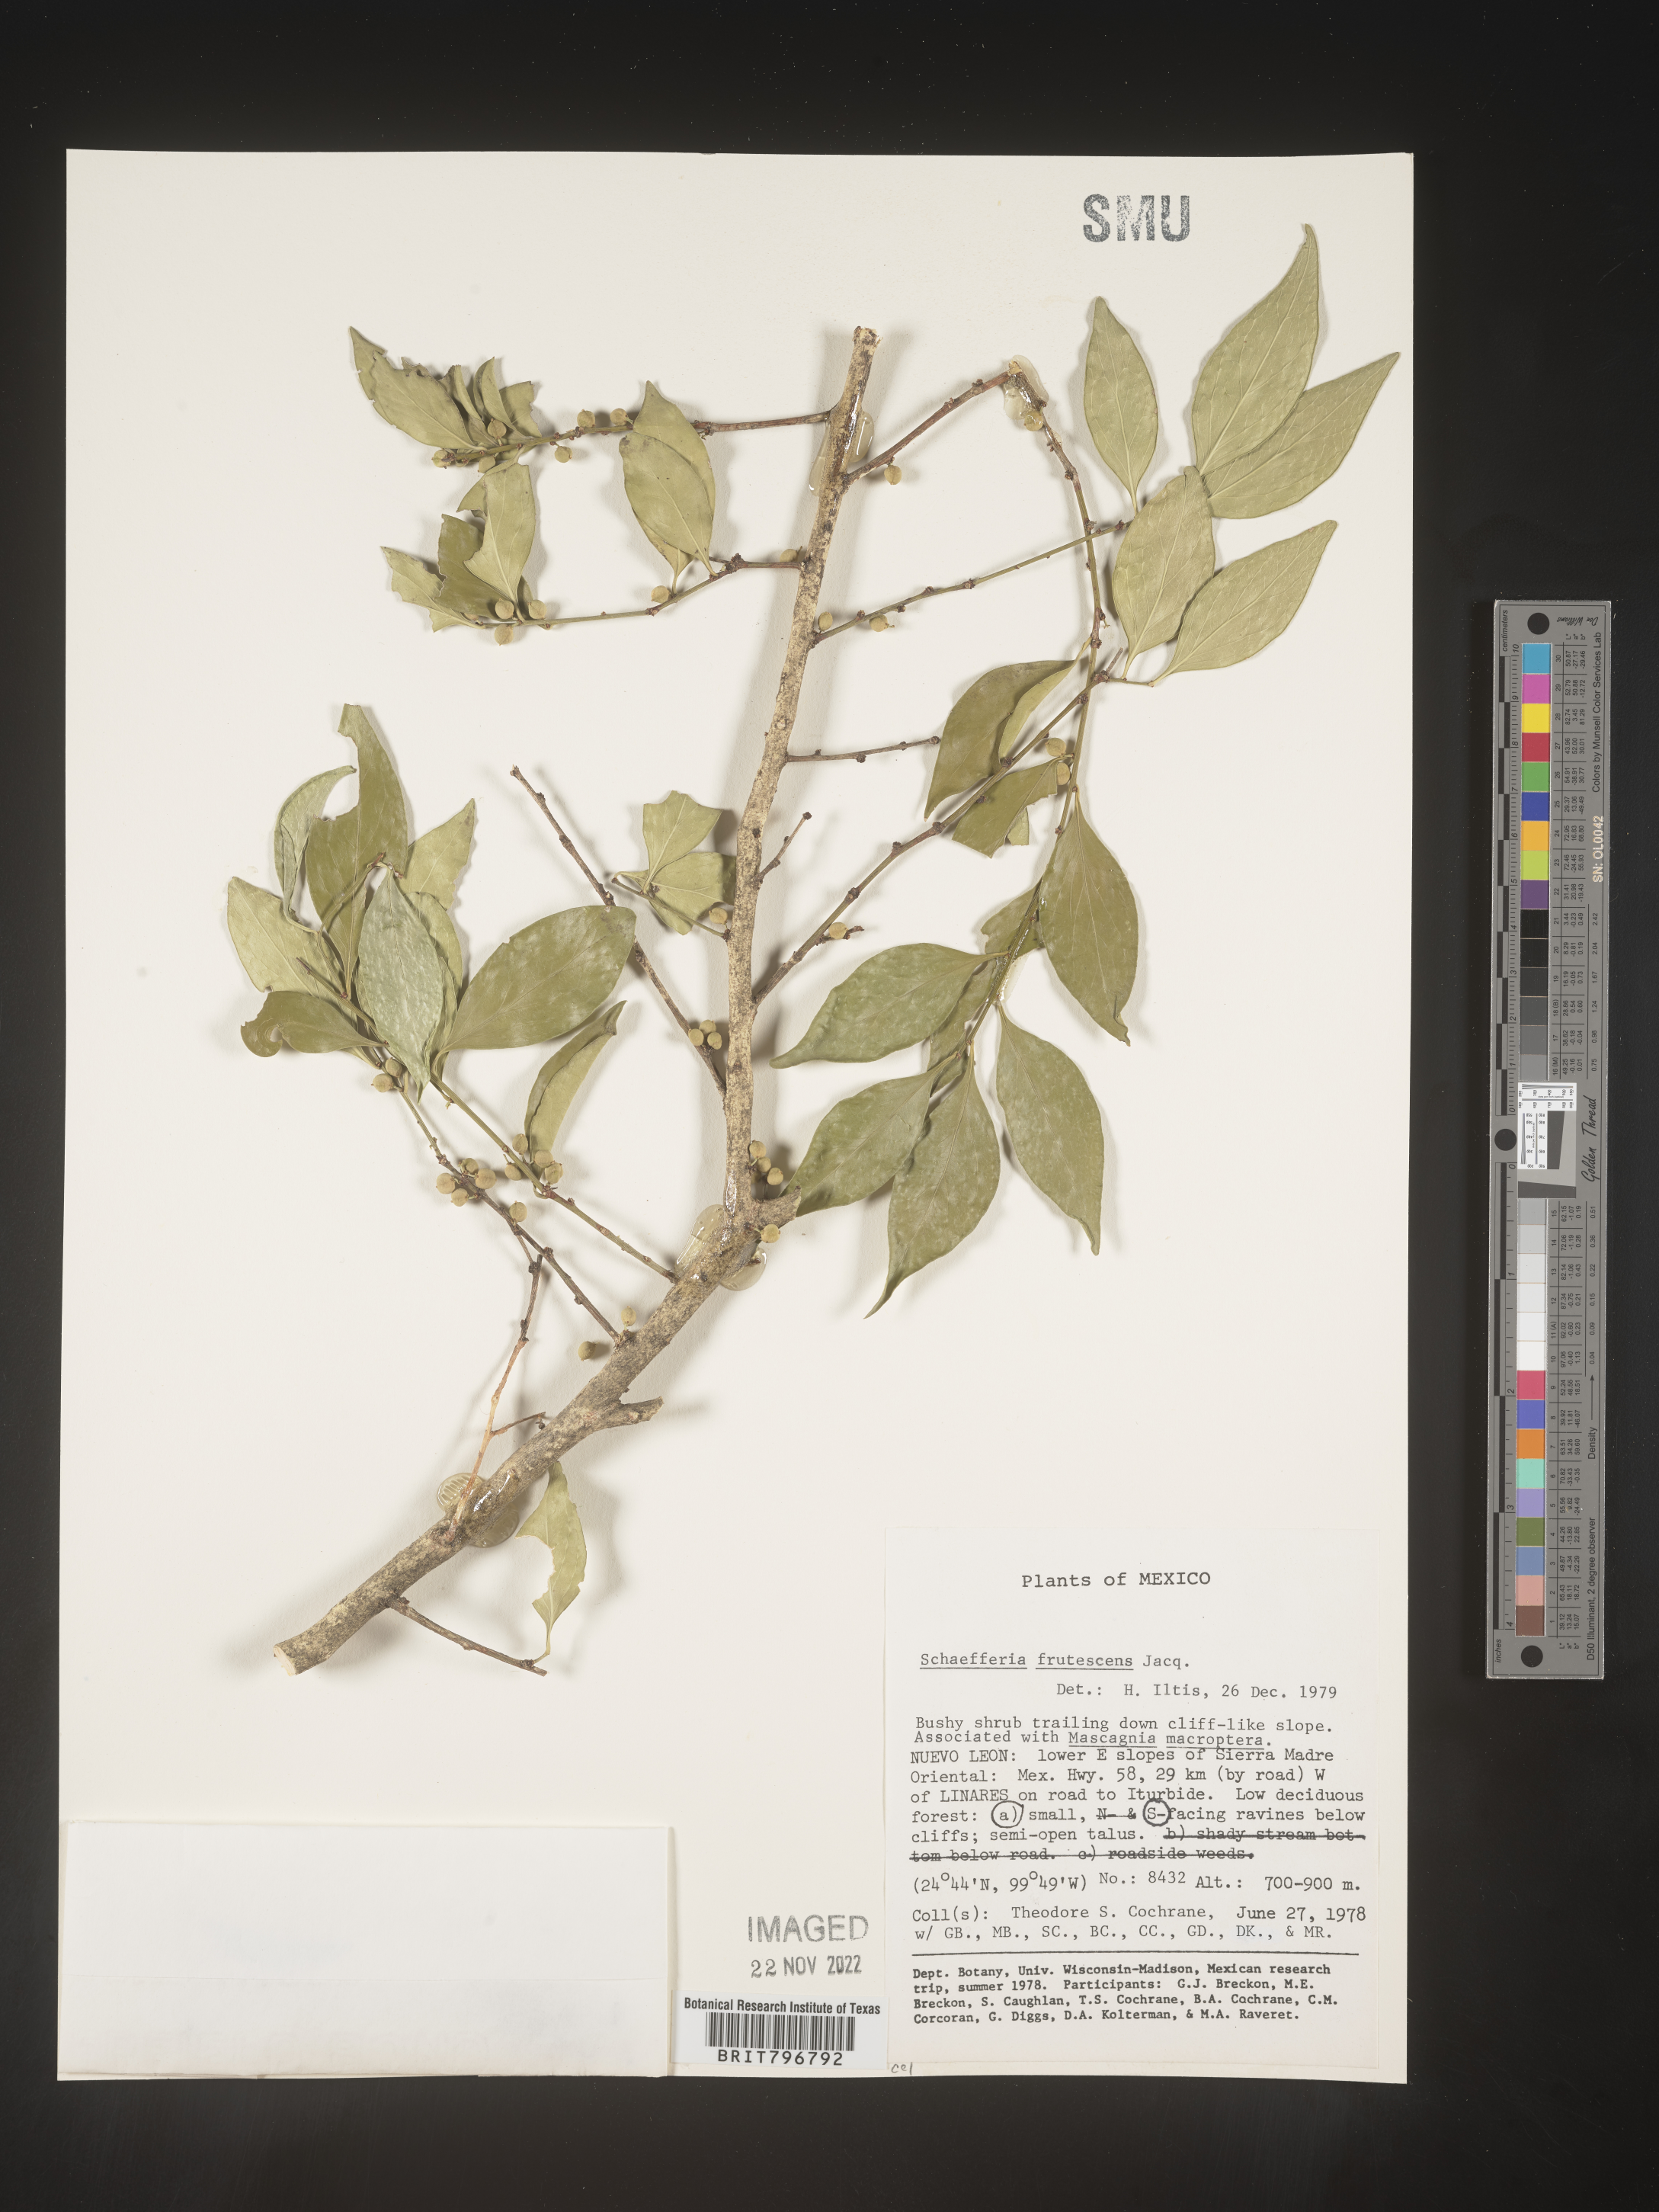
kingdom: Plantae
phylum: Tracheophyta
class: Magnoliopsida
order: Celastrales
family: Celastraceae
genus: Schaefferia
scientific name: Schaefferia
